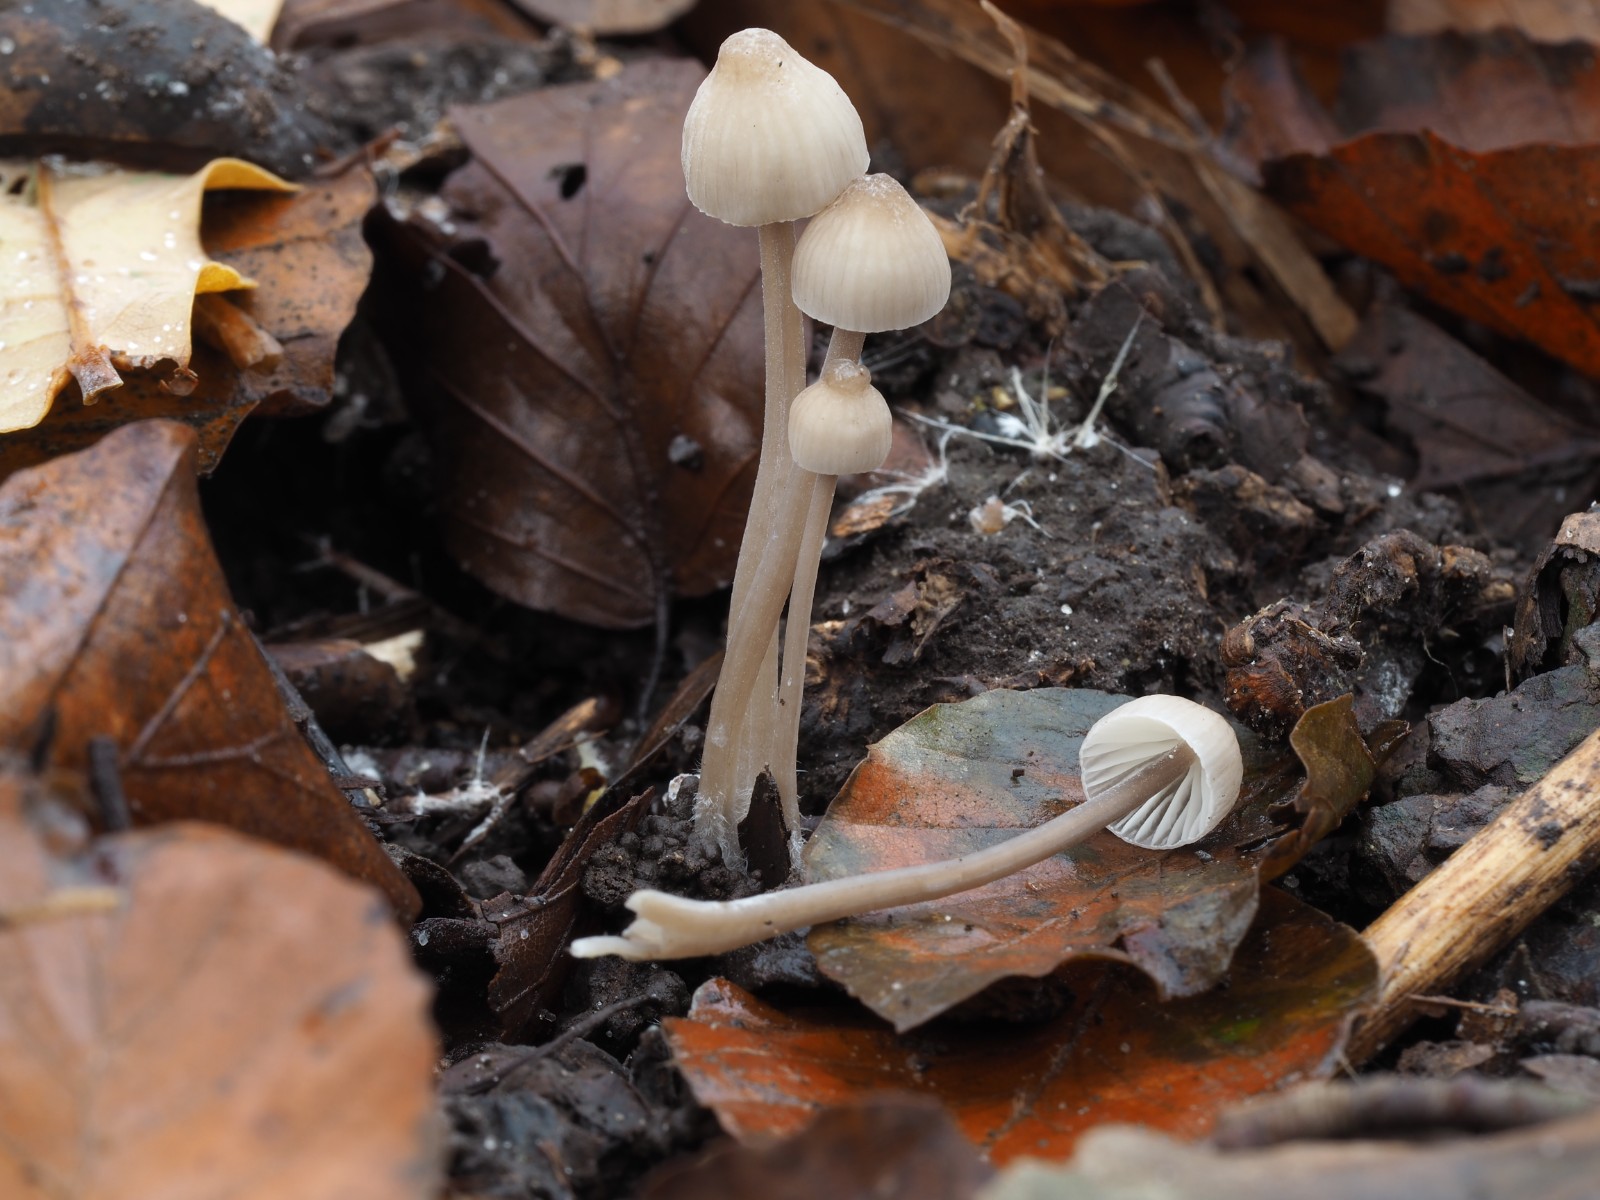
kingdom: Fungi
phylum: Basidiomycota
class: Agaricomycetes
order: Agaricales
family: Mycenaceae
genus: Mycena
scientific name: Mycena galopus
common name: hvidmælket huesvamp
